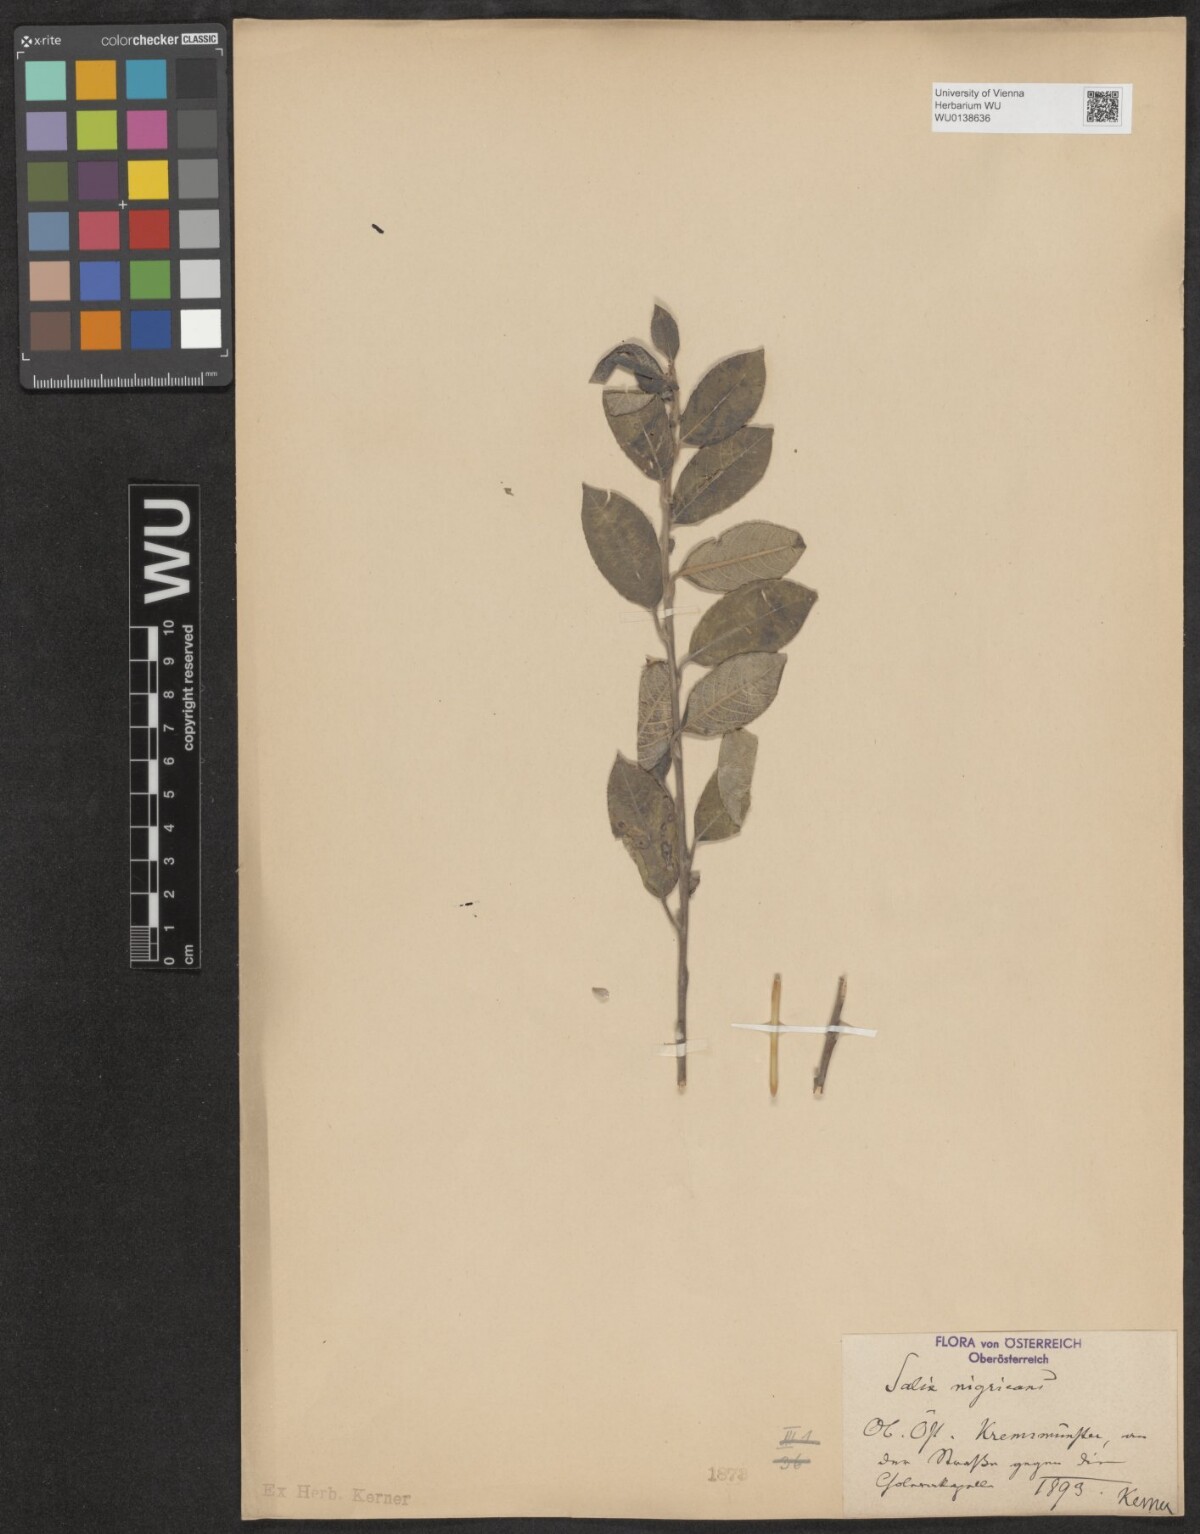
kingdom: Plantae
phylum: Tracheophyta
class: Magnoliopsida
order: Malpighiales
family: Salicaceae
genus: Salix
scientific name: Salix myrsinifolia
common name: Dark-leaved willow
